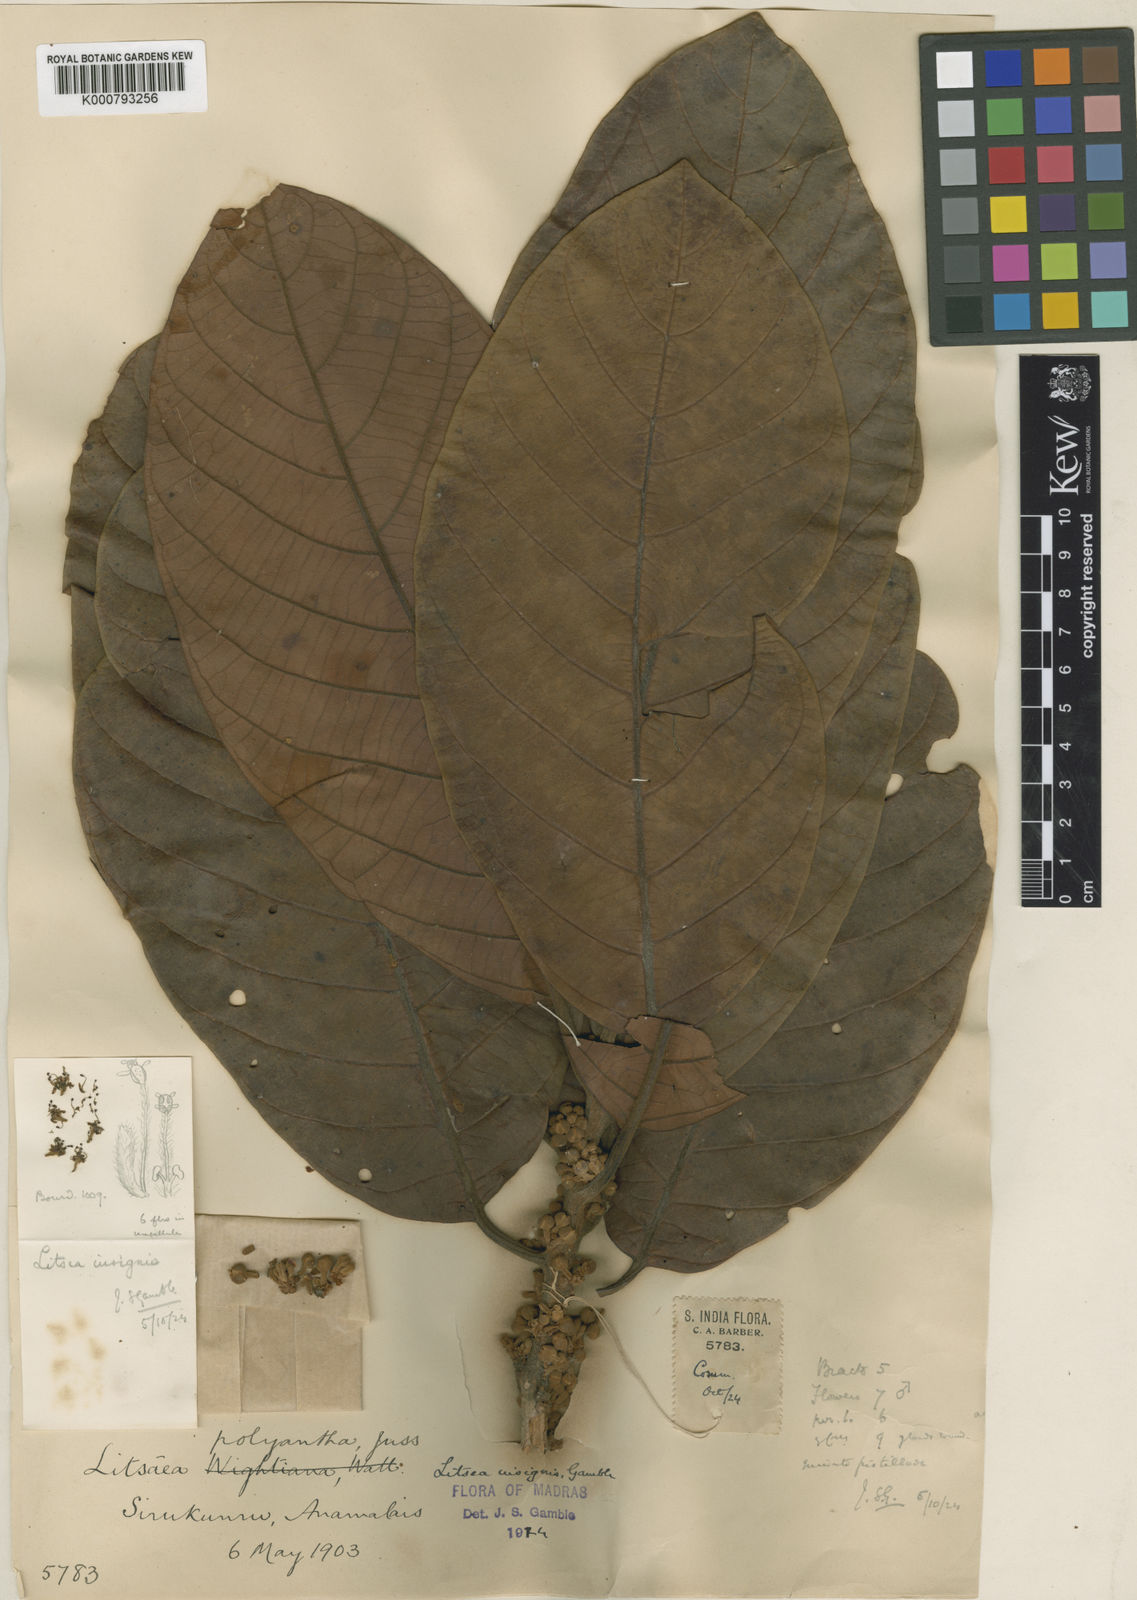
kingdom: Plantae
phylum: Tracheophyta
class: Magnoliopsida
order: Laurales
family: Lauraceae
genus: Litsea
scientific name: Litsea keralana
